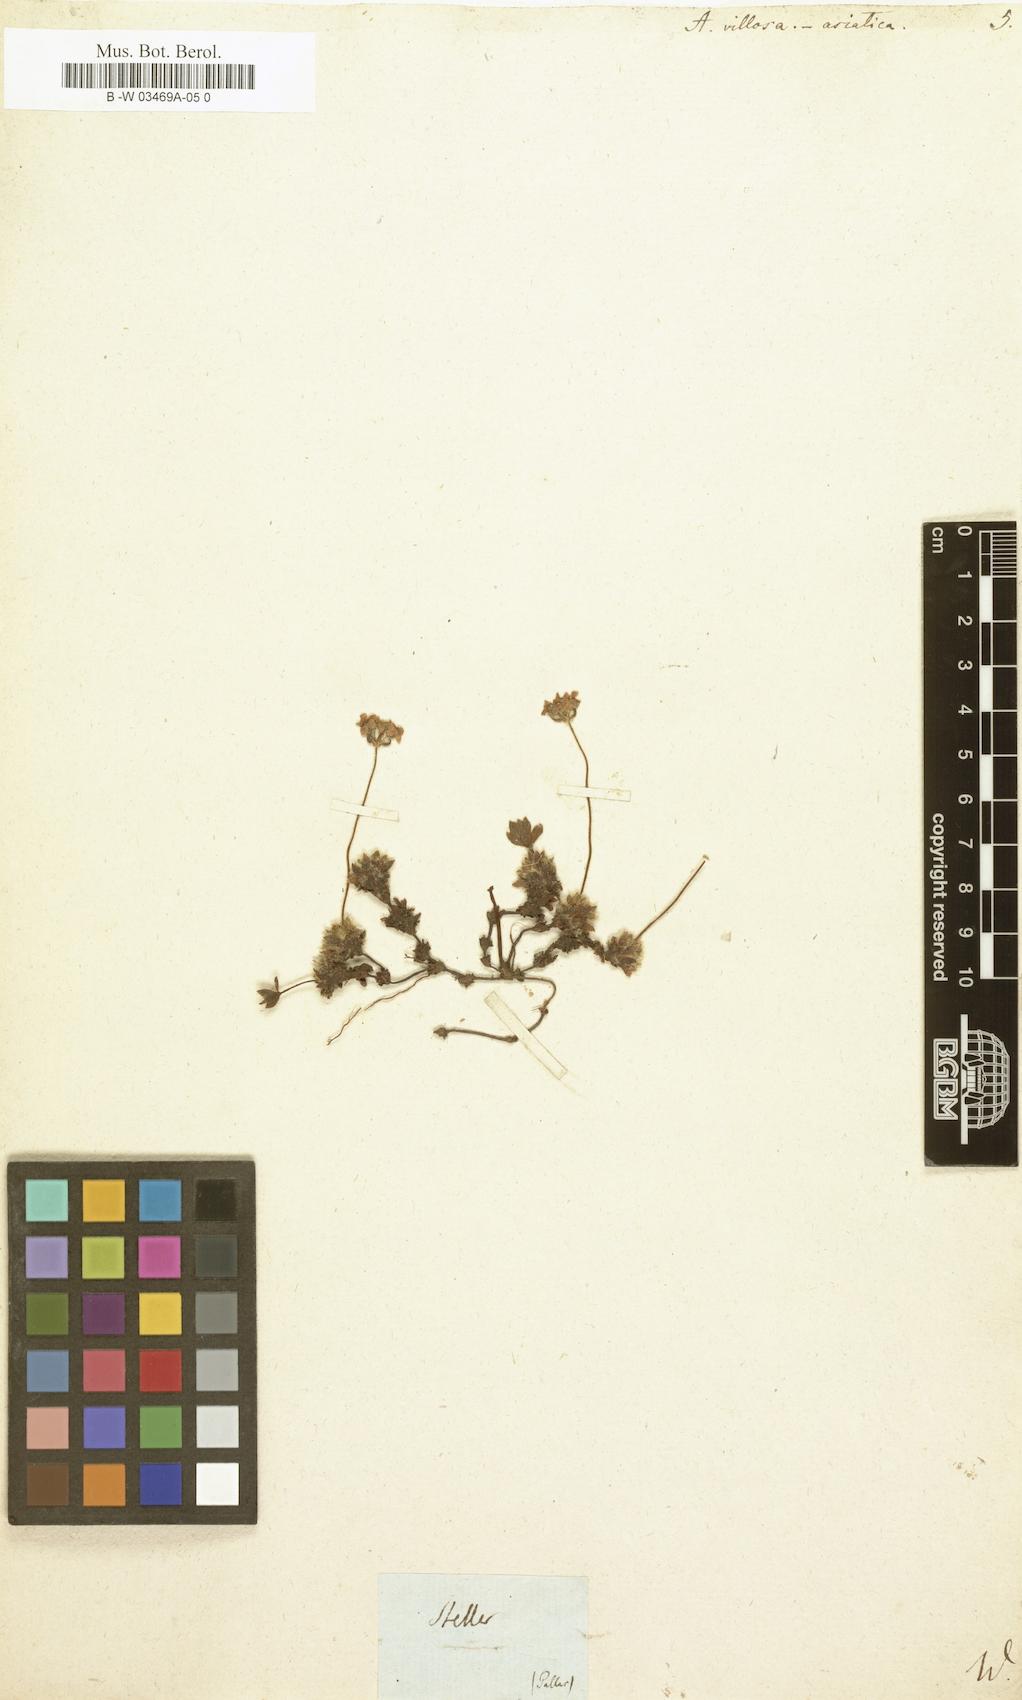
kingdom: Plantae
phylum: Tracheophyta
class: Magnoliopsida
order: Ericales
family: Primulaceae
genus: Androsace
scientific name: Androsace villosa
